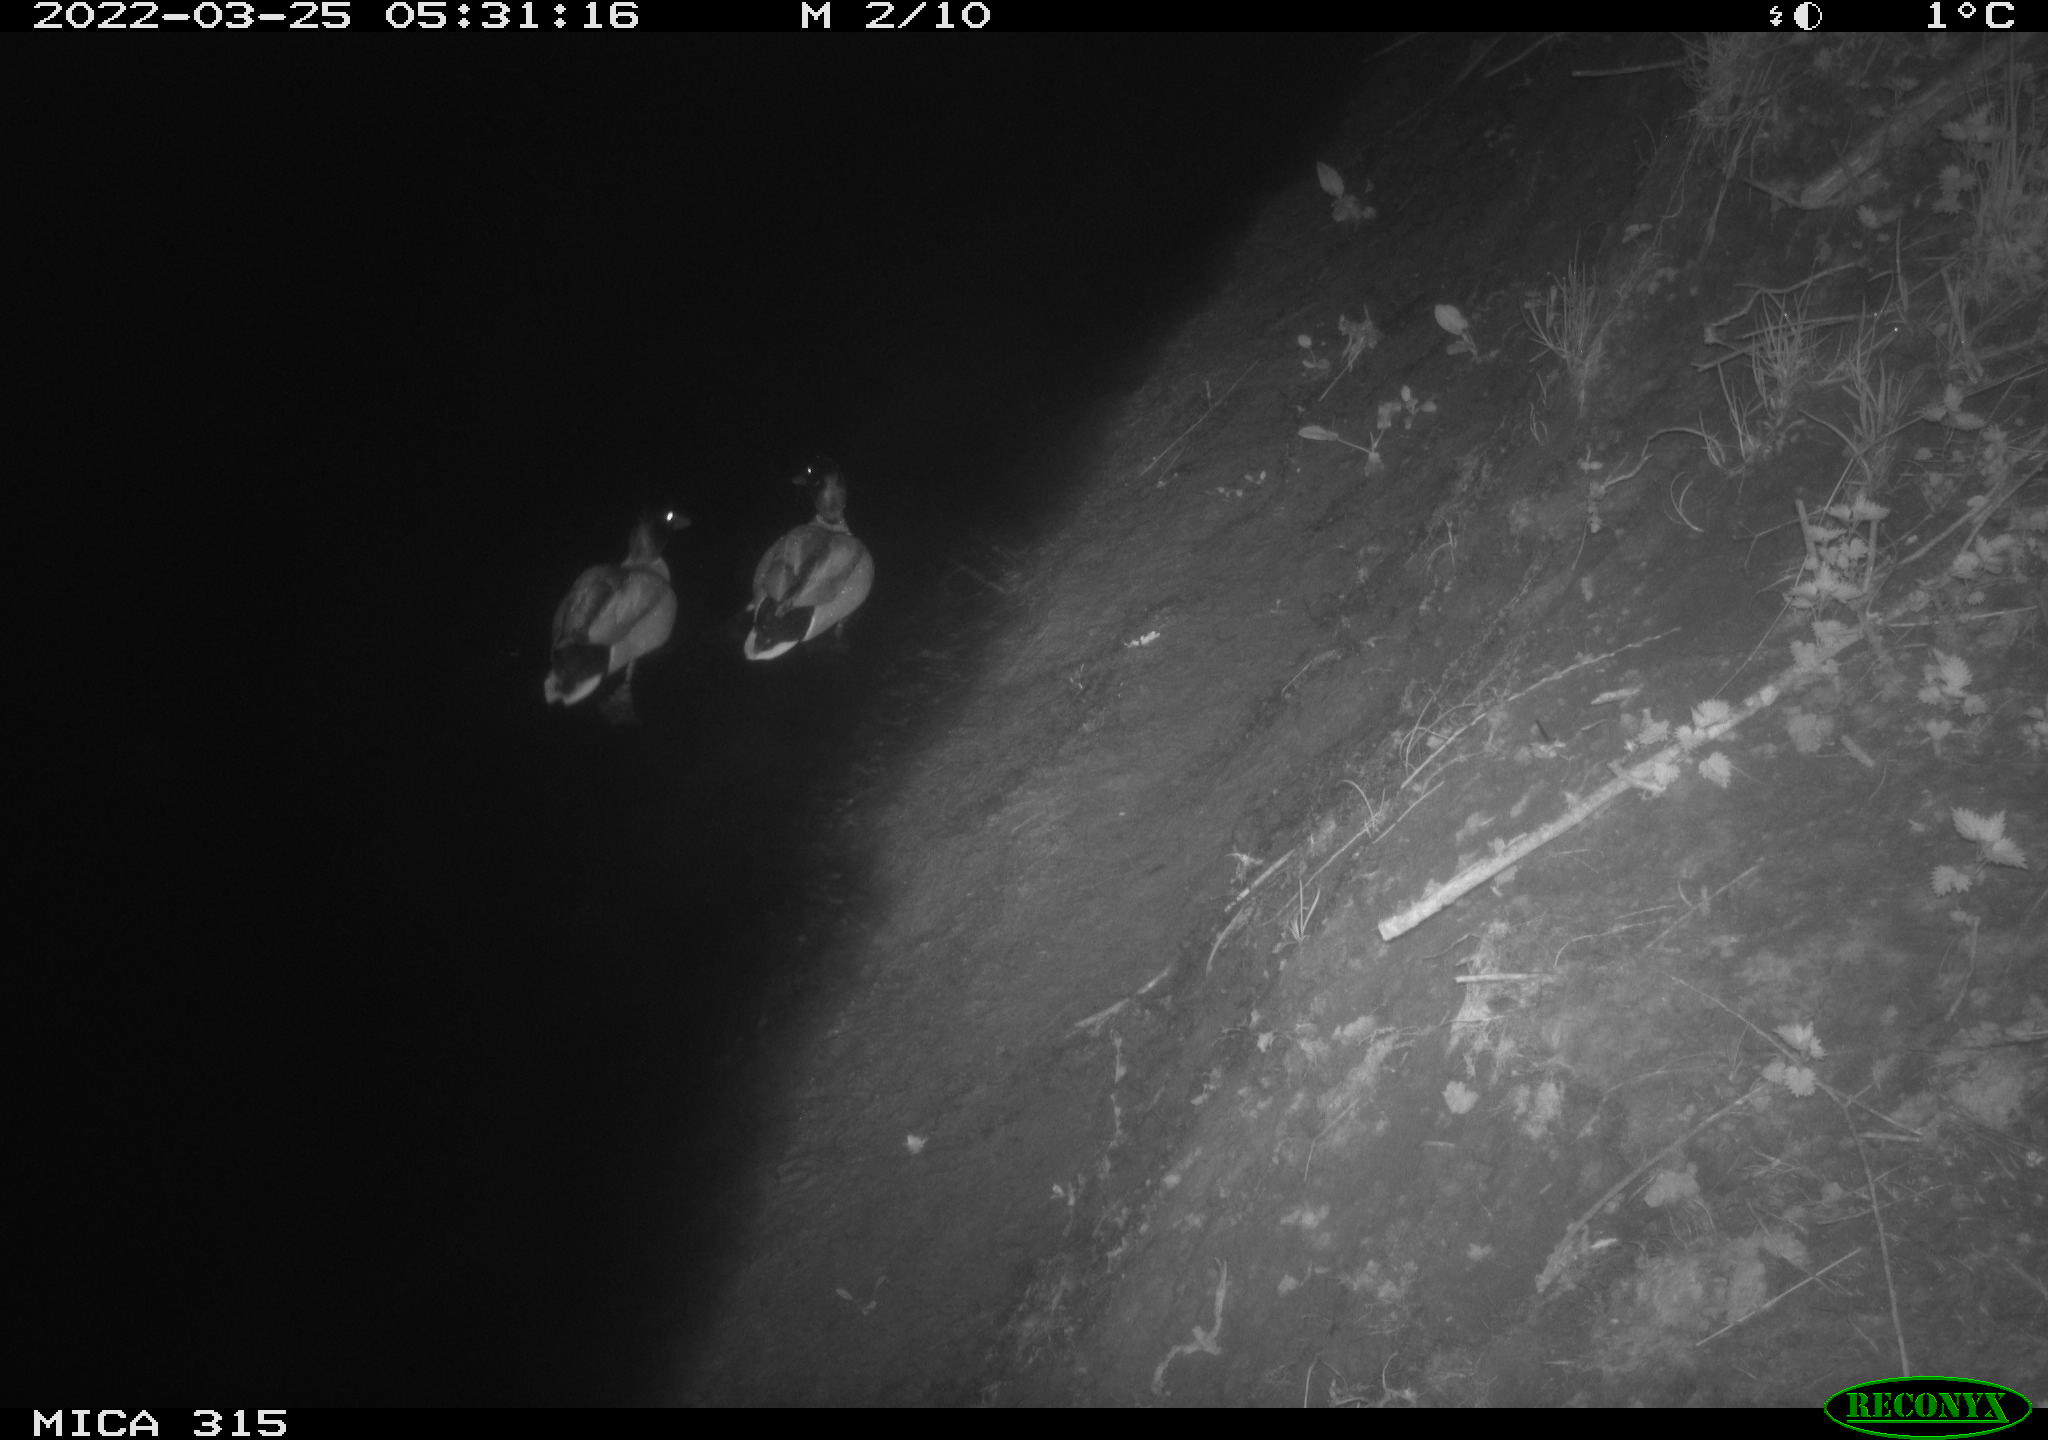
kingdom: Animalia
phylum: Chordata
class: Aves
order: Anseriformes
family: Anatidae
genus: Anas
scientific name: Anas platyrhynchos
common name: Mallard
